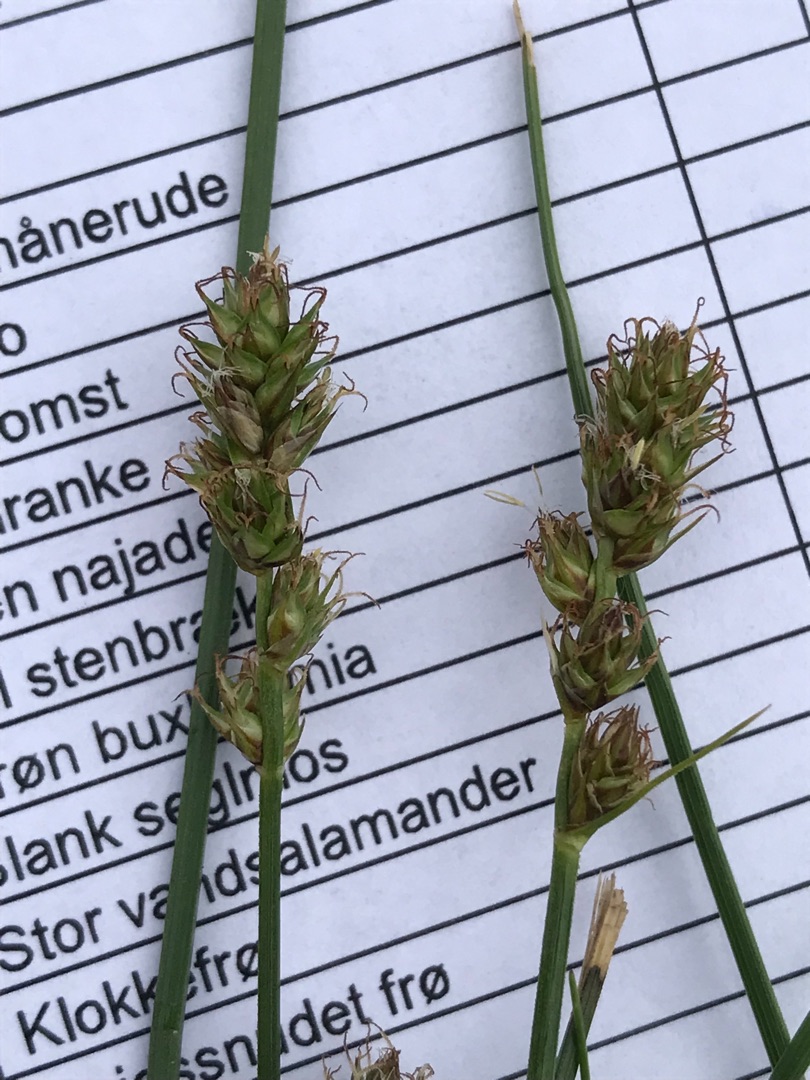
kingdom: Plantae
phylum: Tracheophyta
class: Liliopsida
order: Poales
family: Cyperaceae
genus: Carex
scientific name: Carex divulsa
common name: Mellembrudt star
